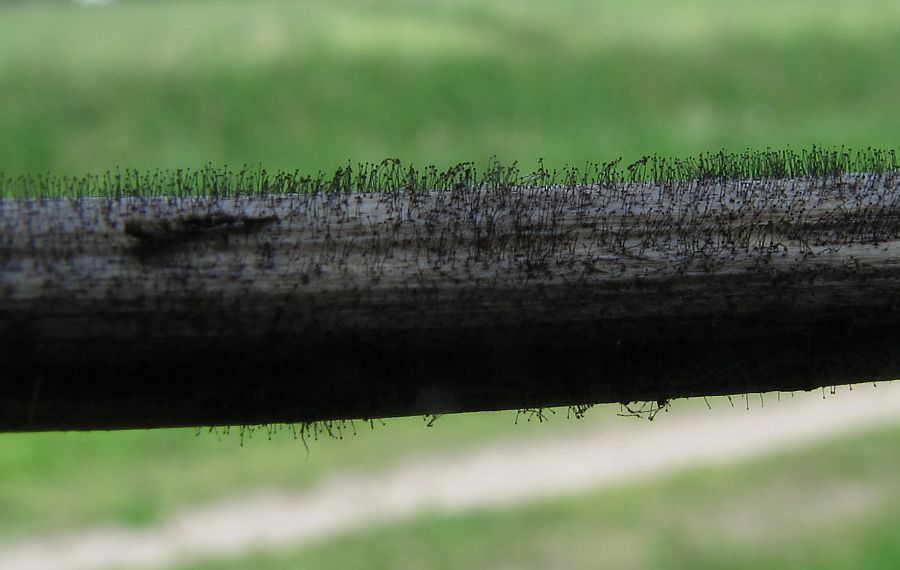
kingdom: Fungi
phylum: Ascomycota
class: Dothideomycetes
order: Pleosporales
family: Periconiaceae
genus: Periconia
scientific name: Periconia minutissima
